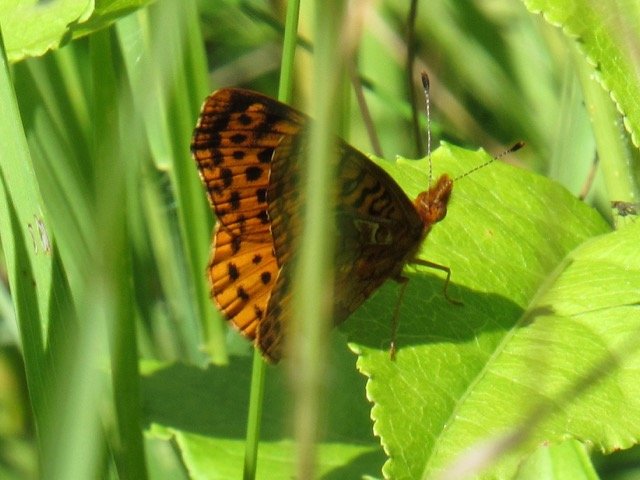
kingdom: Animalia
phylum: Arthropoda
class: Insecta
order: Lepidoptera
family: Nymphalidae
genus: Clossiana
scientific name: Clossiana toddi
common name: Meadow Fritillary
